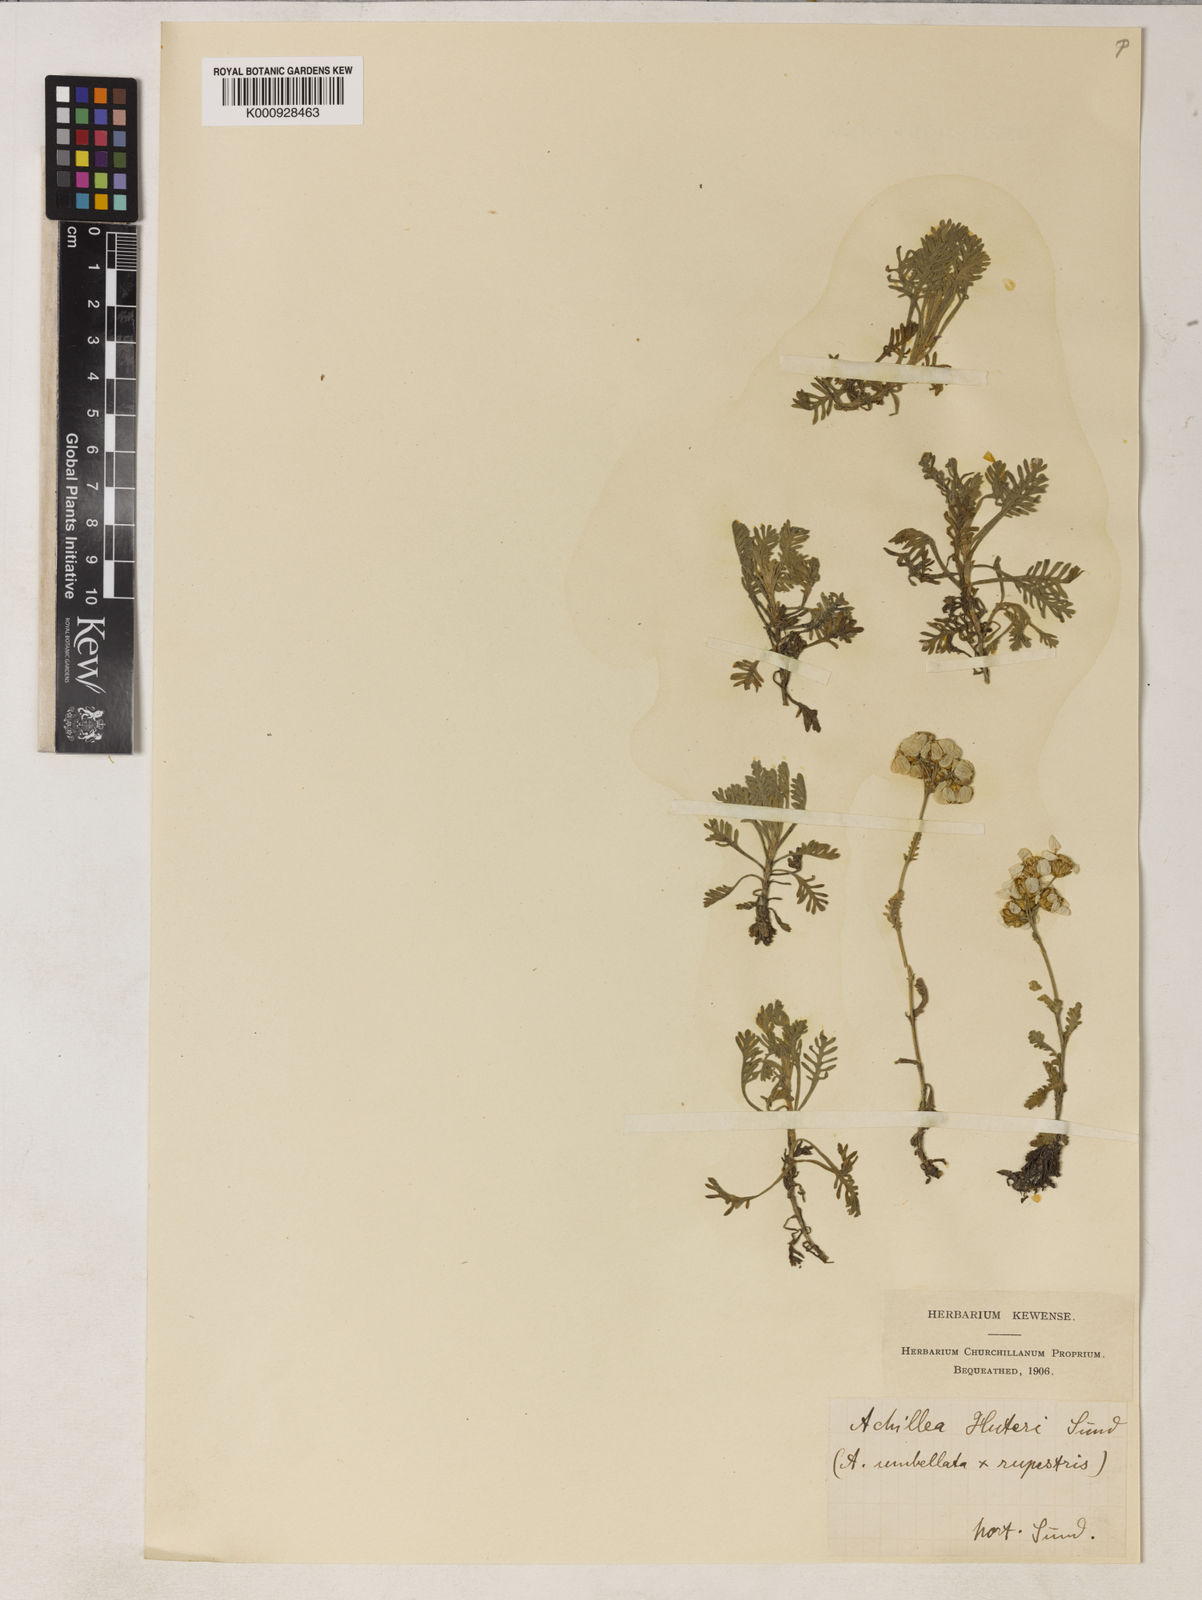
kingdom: Plantae
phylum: Tracheophyta
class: Magnoliopsida
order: Asterales
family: Asteraceae
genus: Achillea
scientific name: Achillea umbellata
